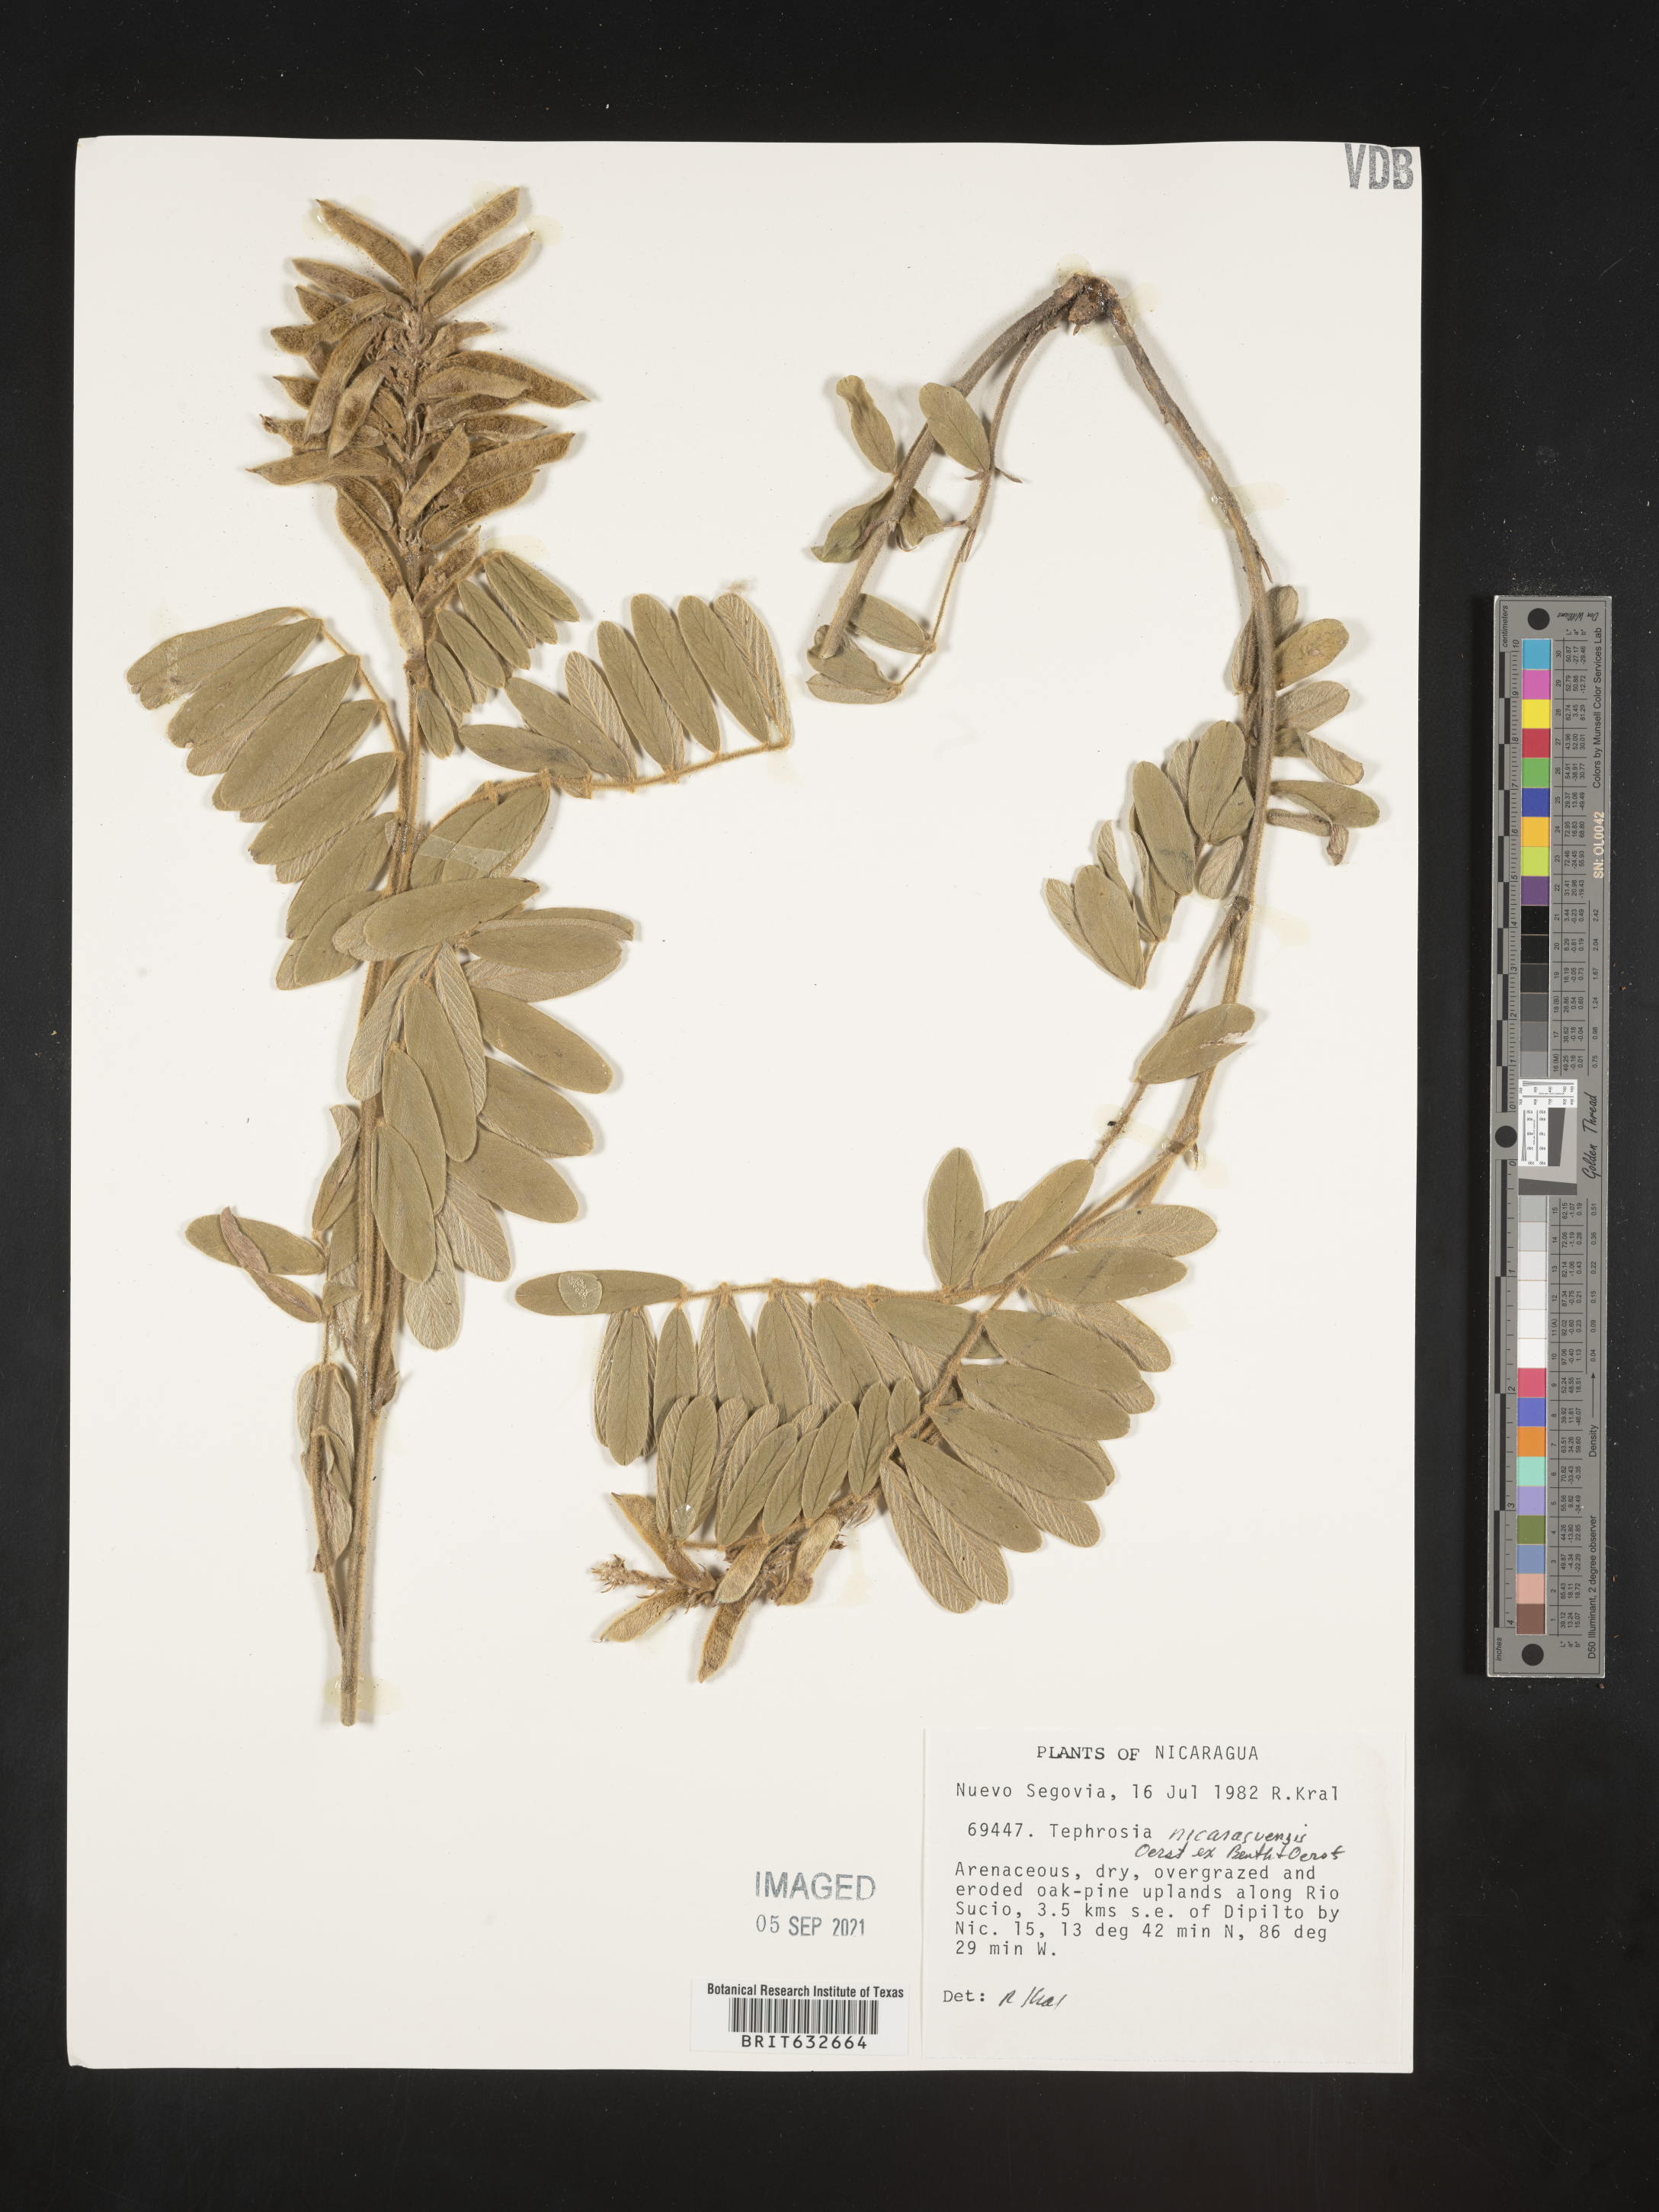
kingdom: Plantae
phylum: Tracheophyta
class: Magnoliopsida
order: Fabales
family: Fabaceae
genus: Tephrosia
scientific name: Tephrosia
